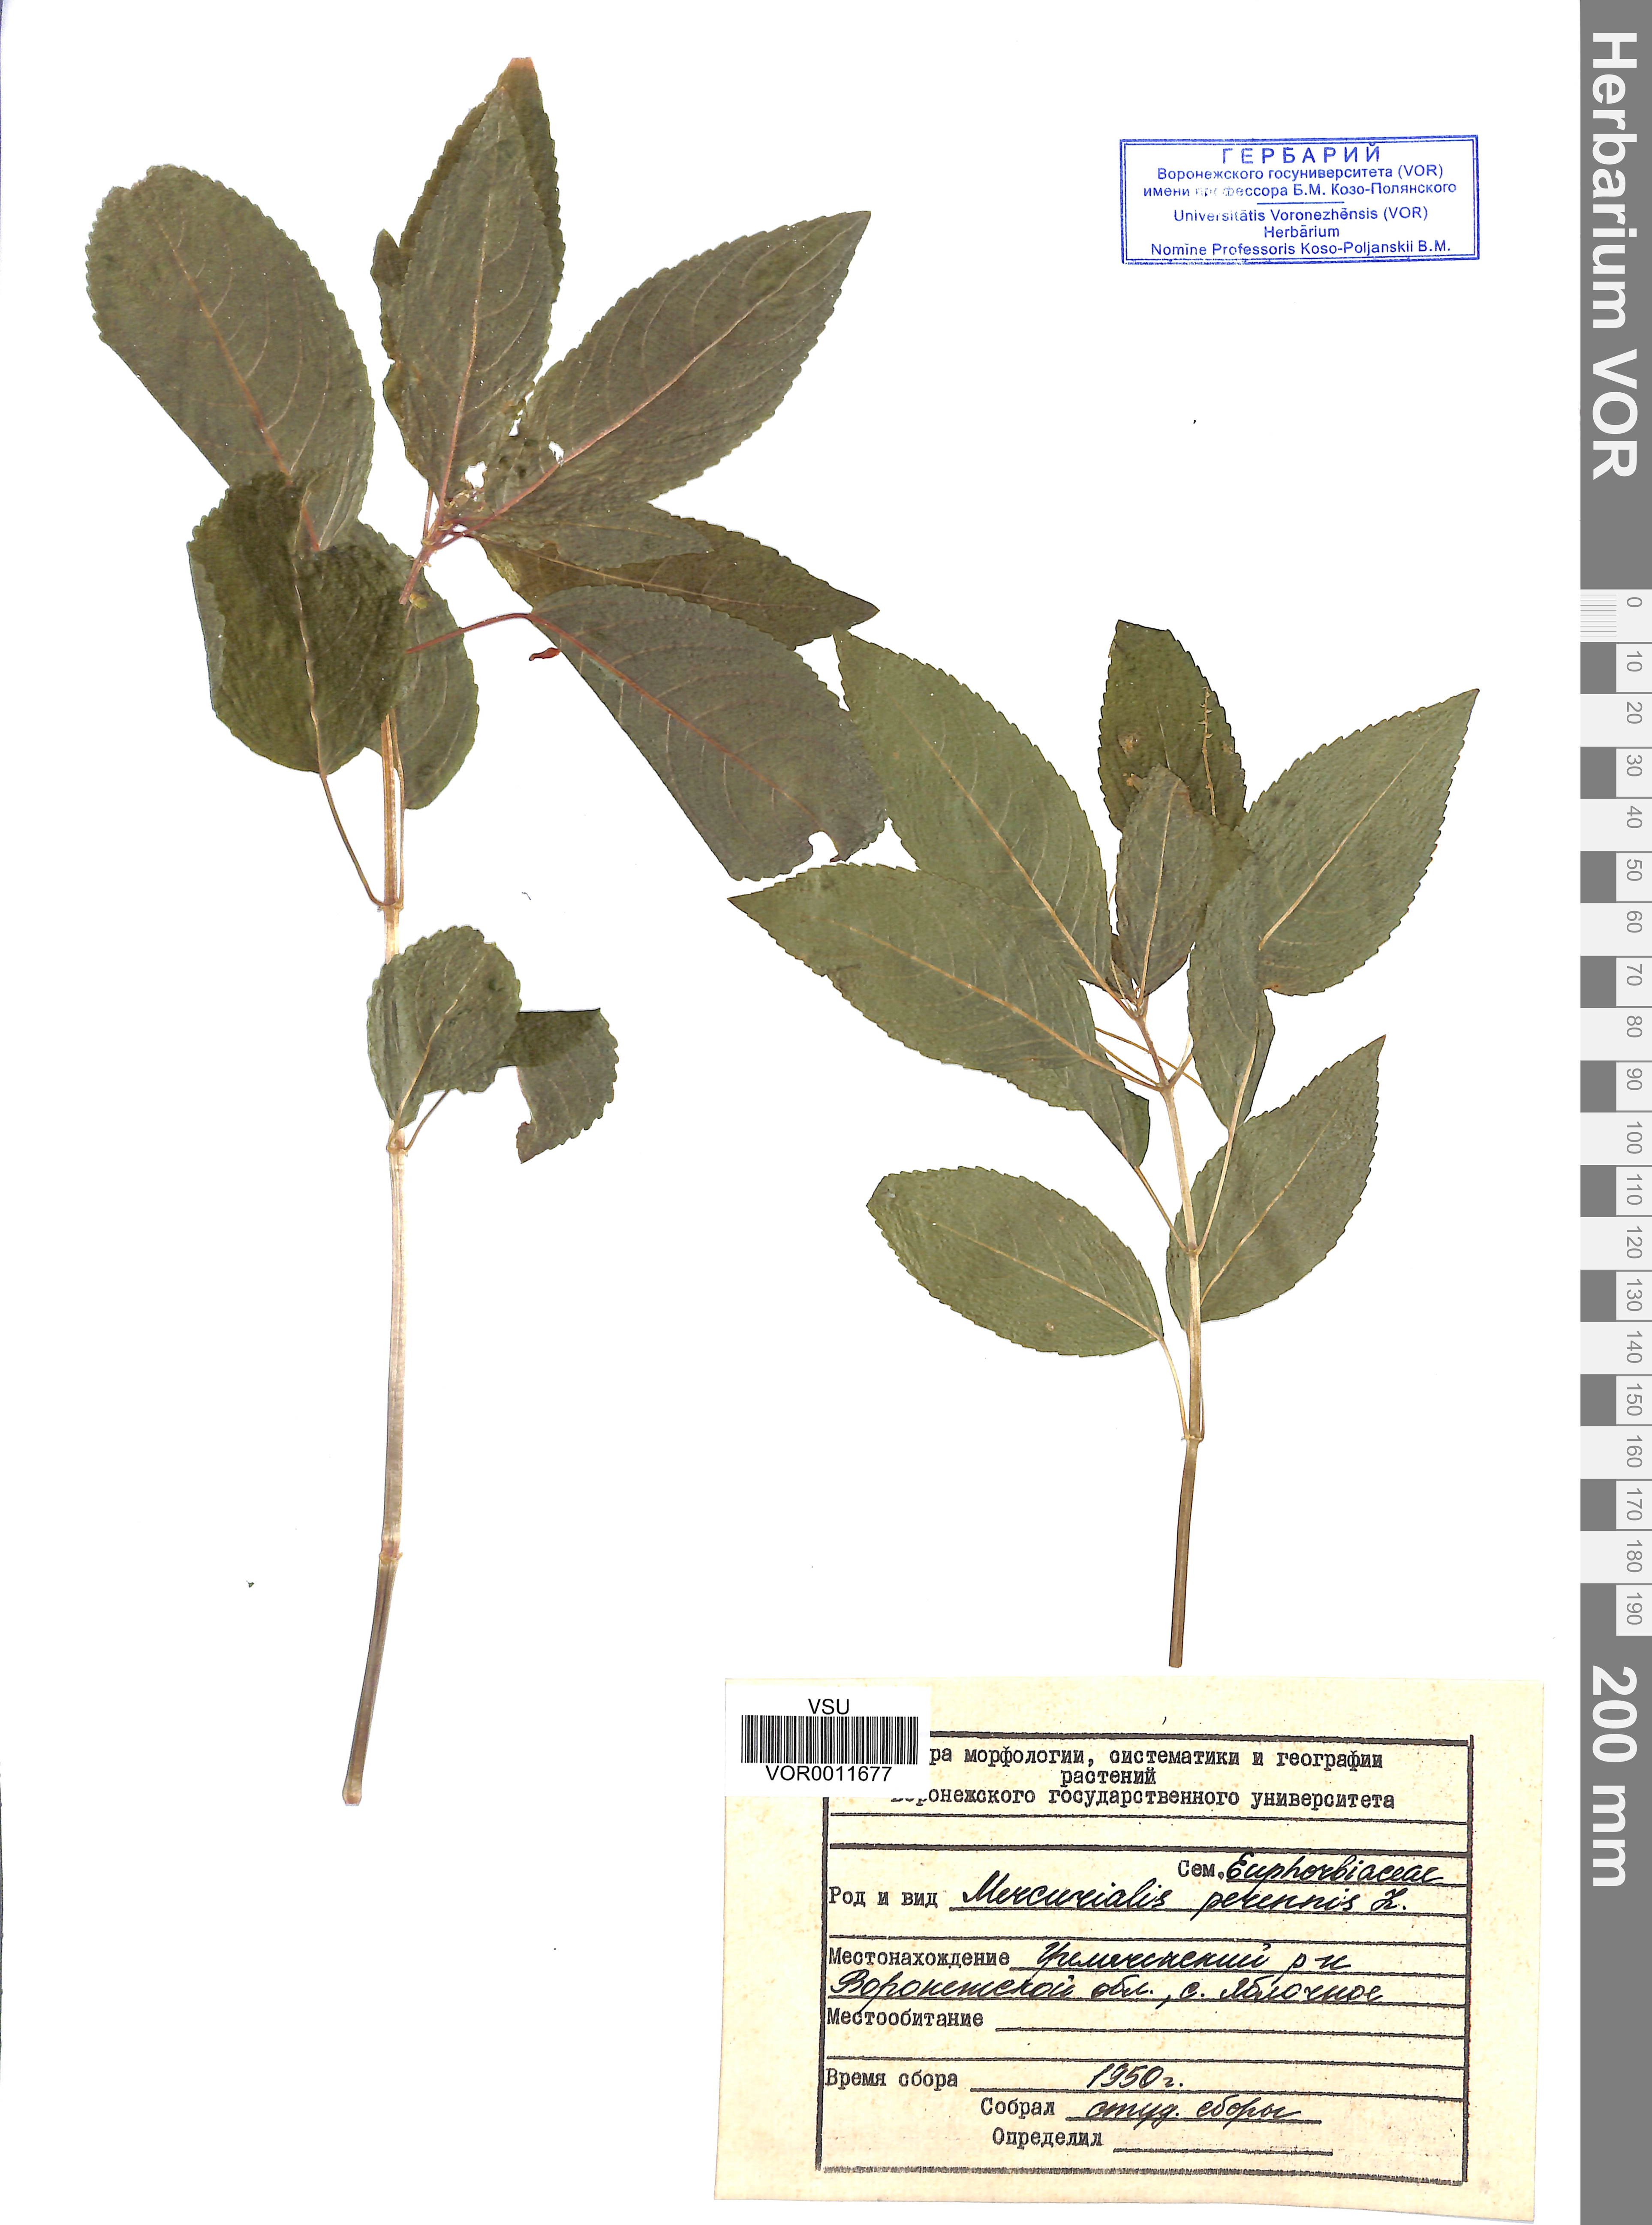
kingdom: Plantae
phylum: Tracheophyta
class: Magnoliopsida
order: Malpighiales
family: Euphorbiaceae
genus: Mercurialis
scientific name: Mercurialis perennis
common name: Dog mercury
